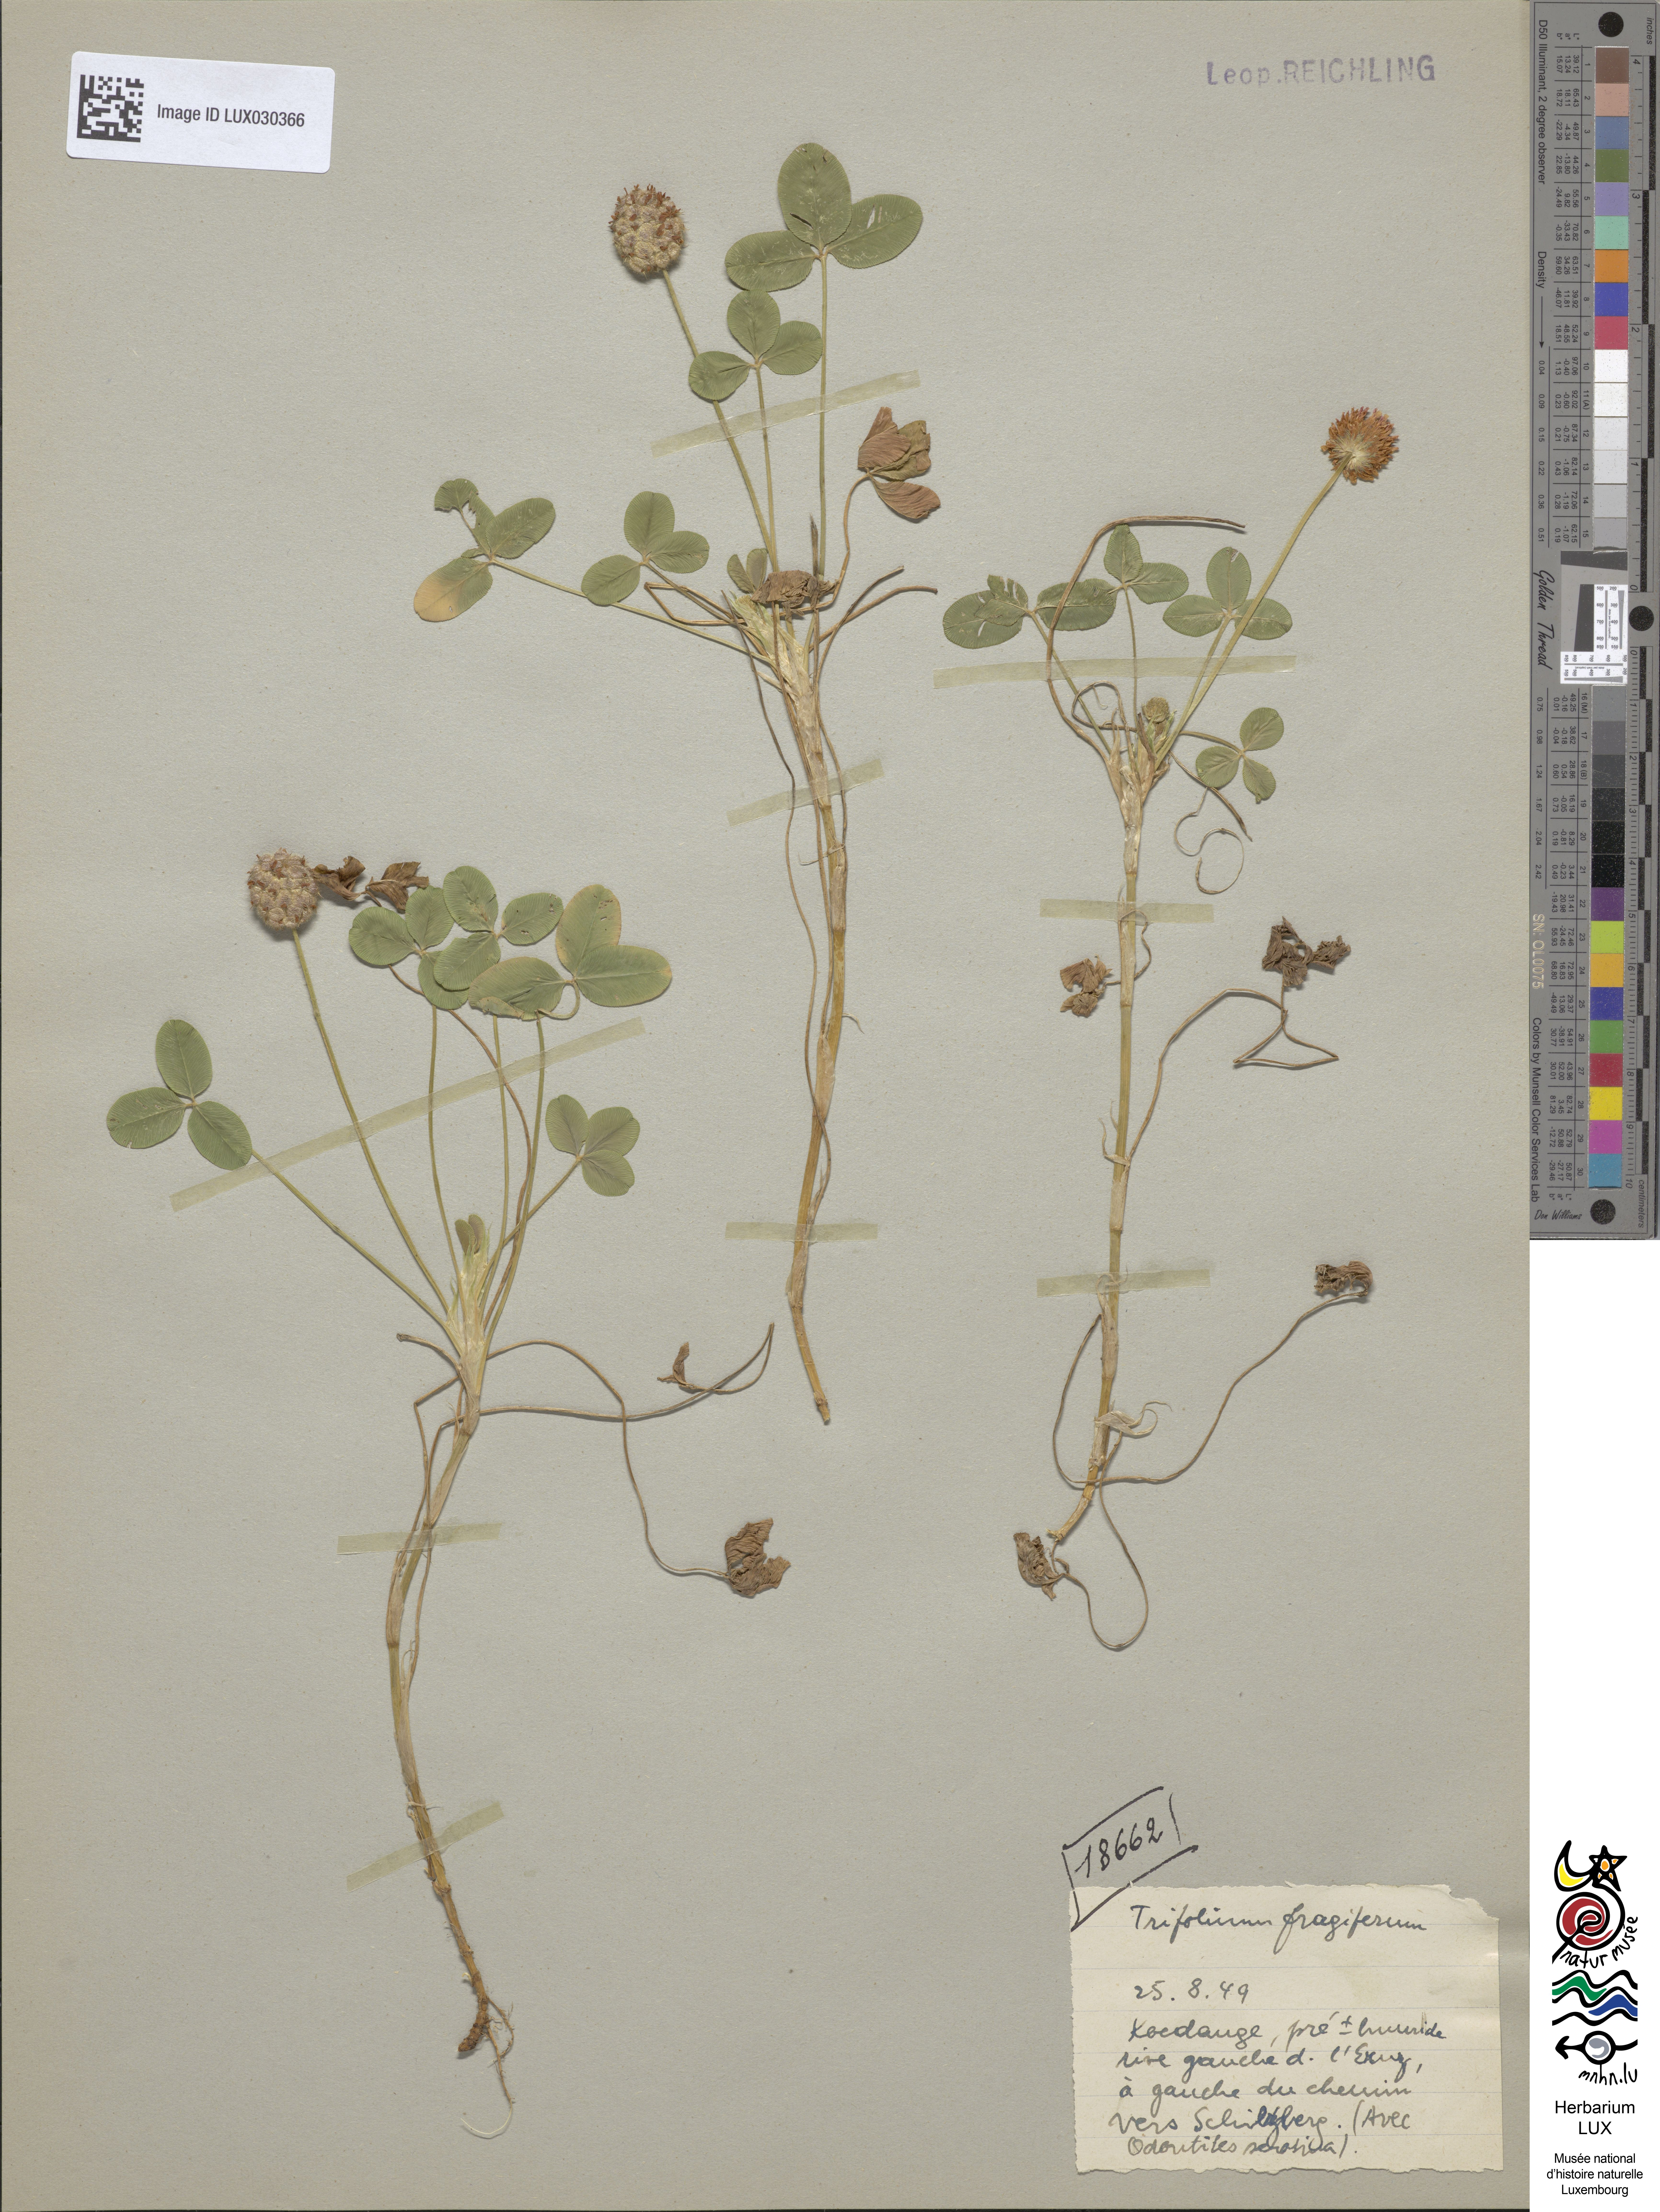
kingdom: Plantae
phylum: Tracheophyta
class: Magnoliopsida
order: Fabales
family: Fabaceae
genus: Trifolium
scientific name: Trifolium fragiferum
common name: Strawberry clover
